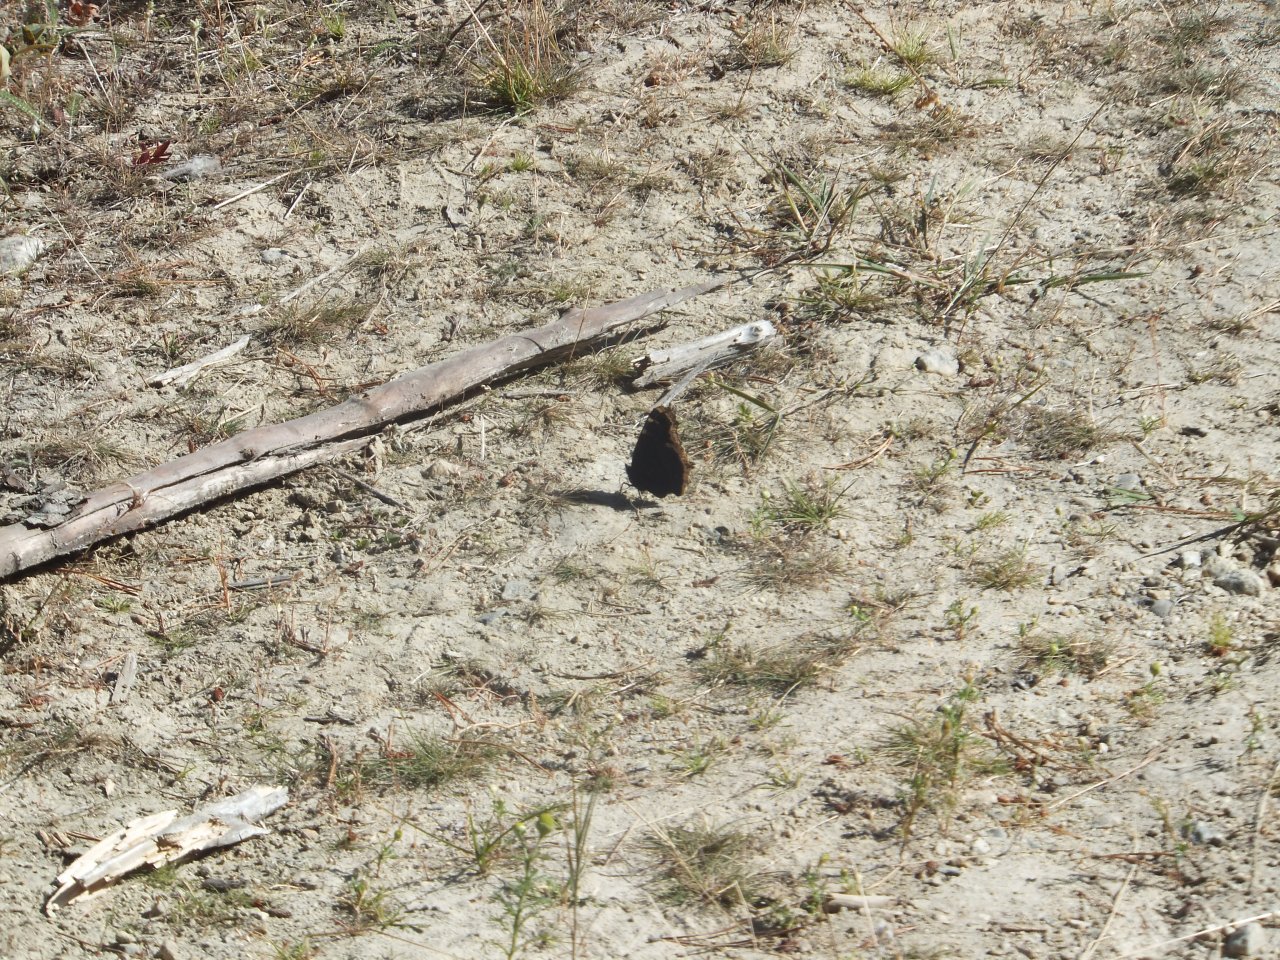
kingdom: Animalia
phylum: Arthropoda
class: Insecta
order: Lepidoptera
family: Nymphalidae
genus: Nymphalis
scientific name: Nymphalis antiopa
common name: Mourning Cloak
